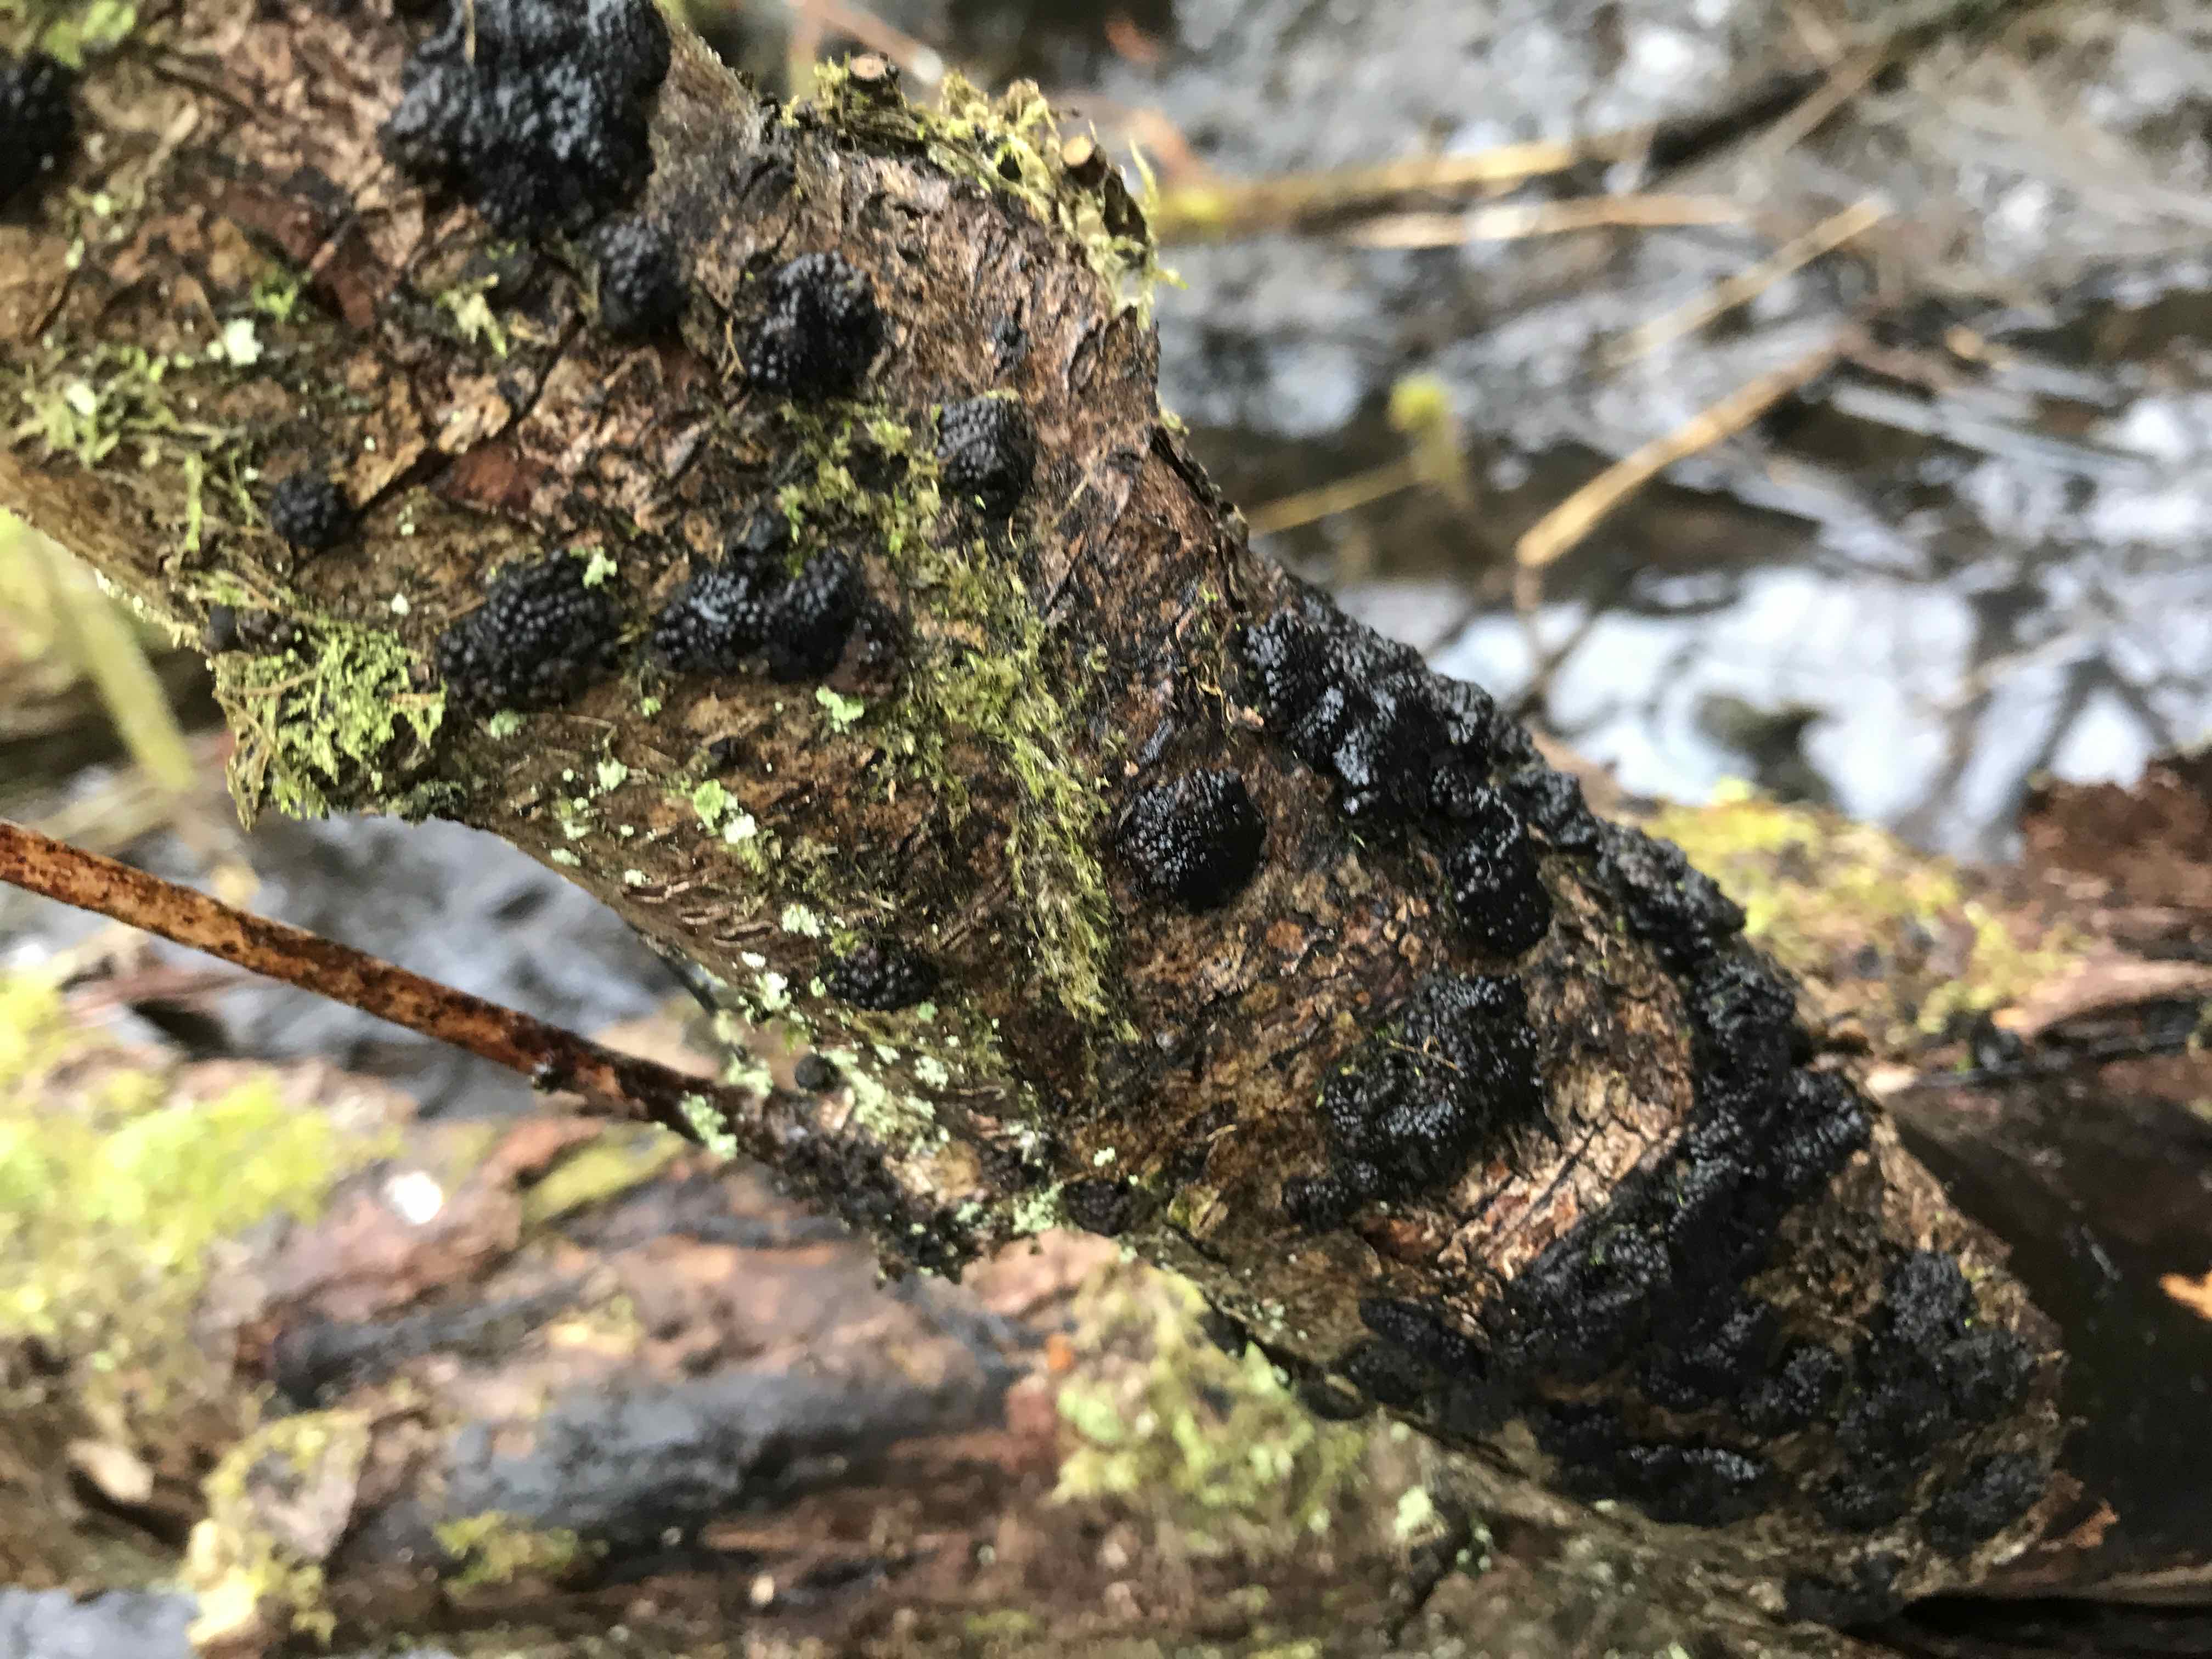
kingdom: Fungi
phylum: Ascomycota
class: Sordariomycetes
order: Xylariales
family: Hypoxylaceae
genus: Jackrogersella
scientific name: Jackrogersella multiformis
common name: foranderlig kulbær
